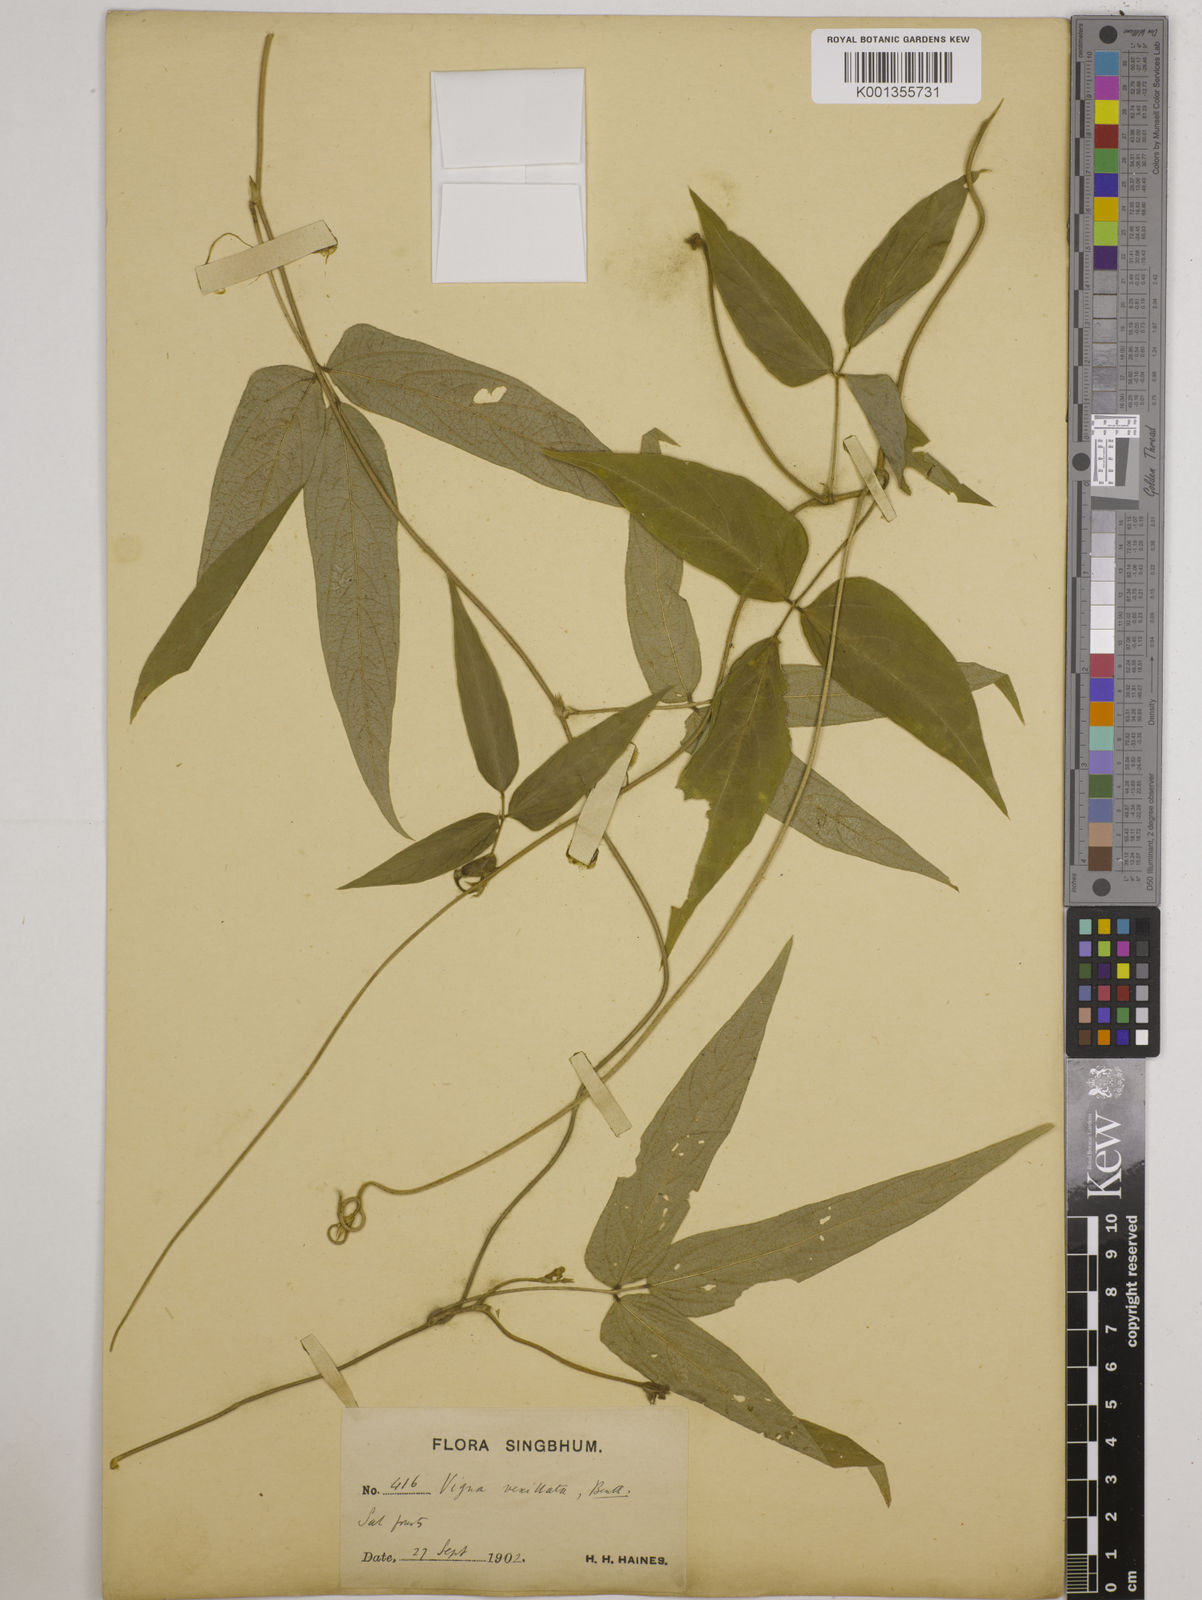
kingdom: Plantae
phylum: Tracheophyta
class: Magnoliopsida
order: Fabales
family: Fabaceae
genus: Vigna
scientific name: Vigna vexillata
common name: Zombi pea
